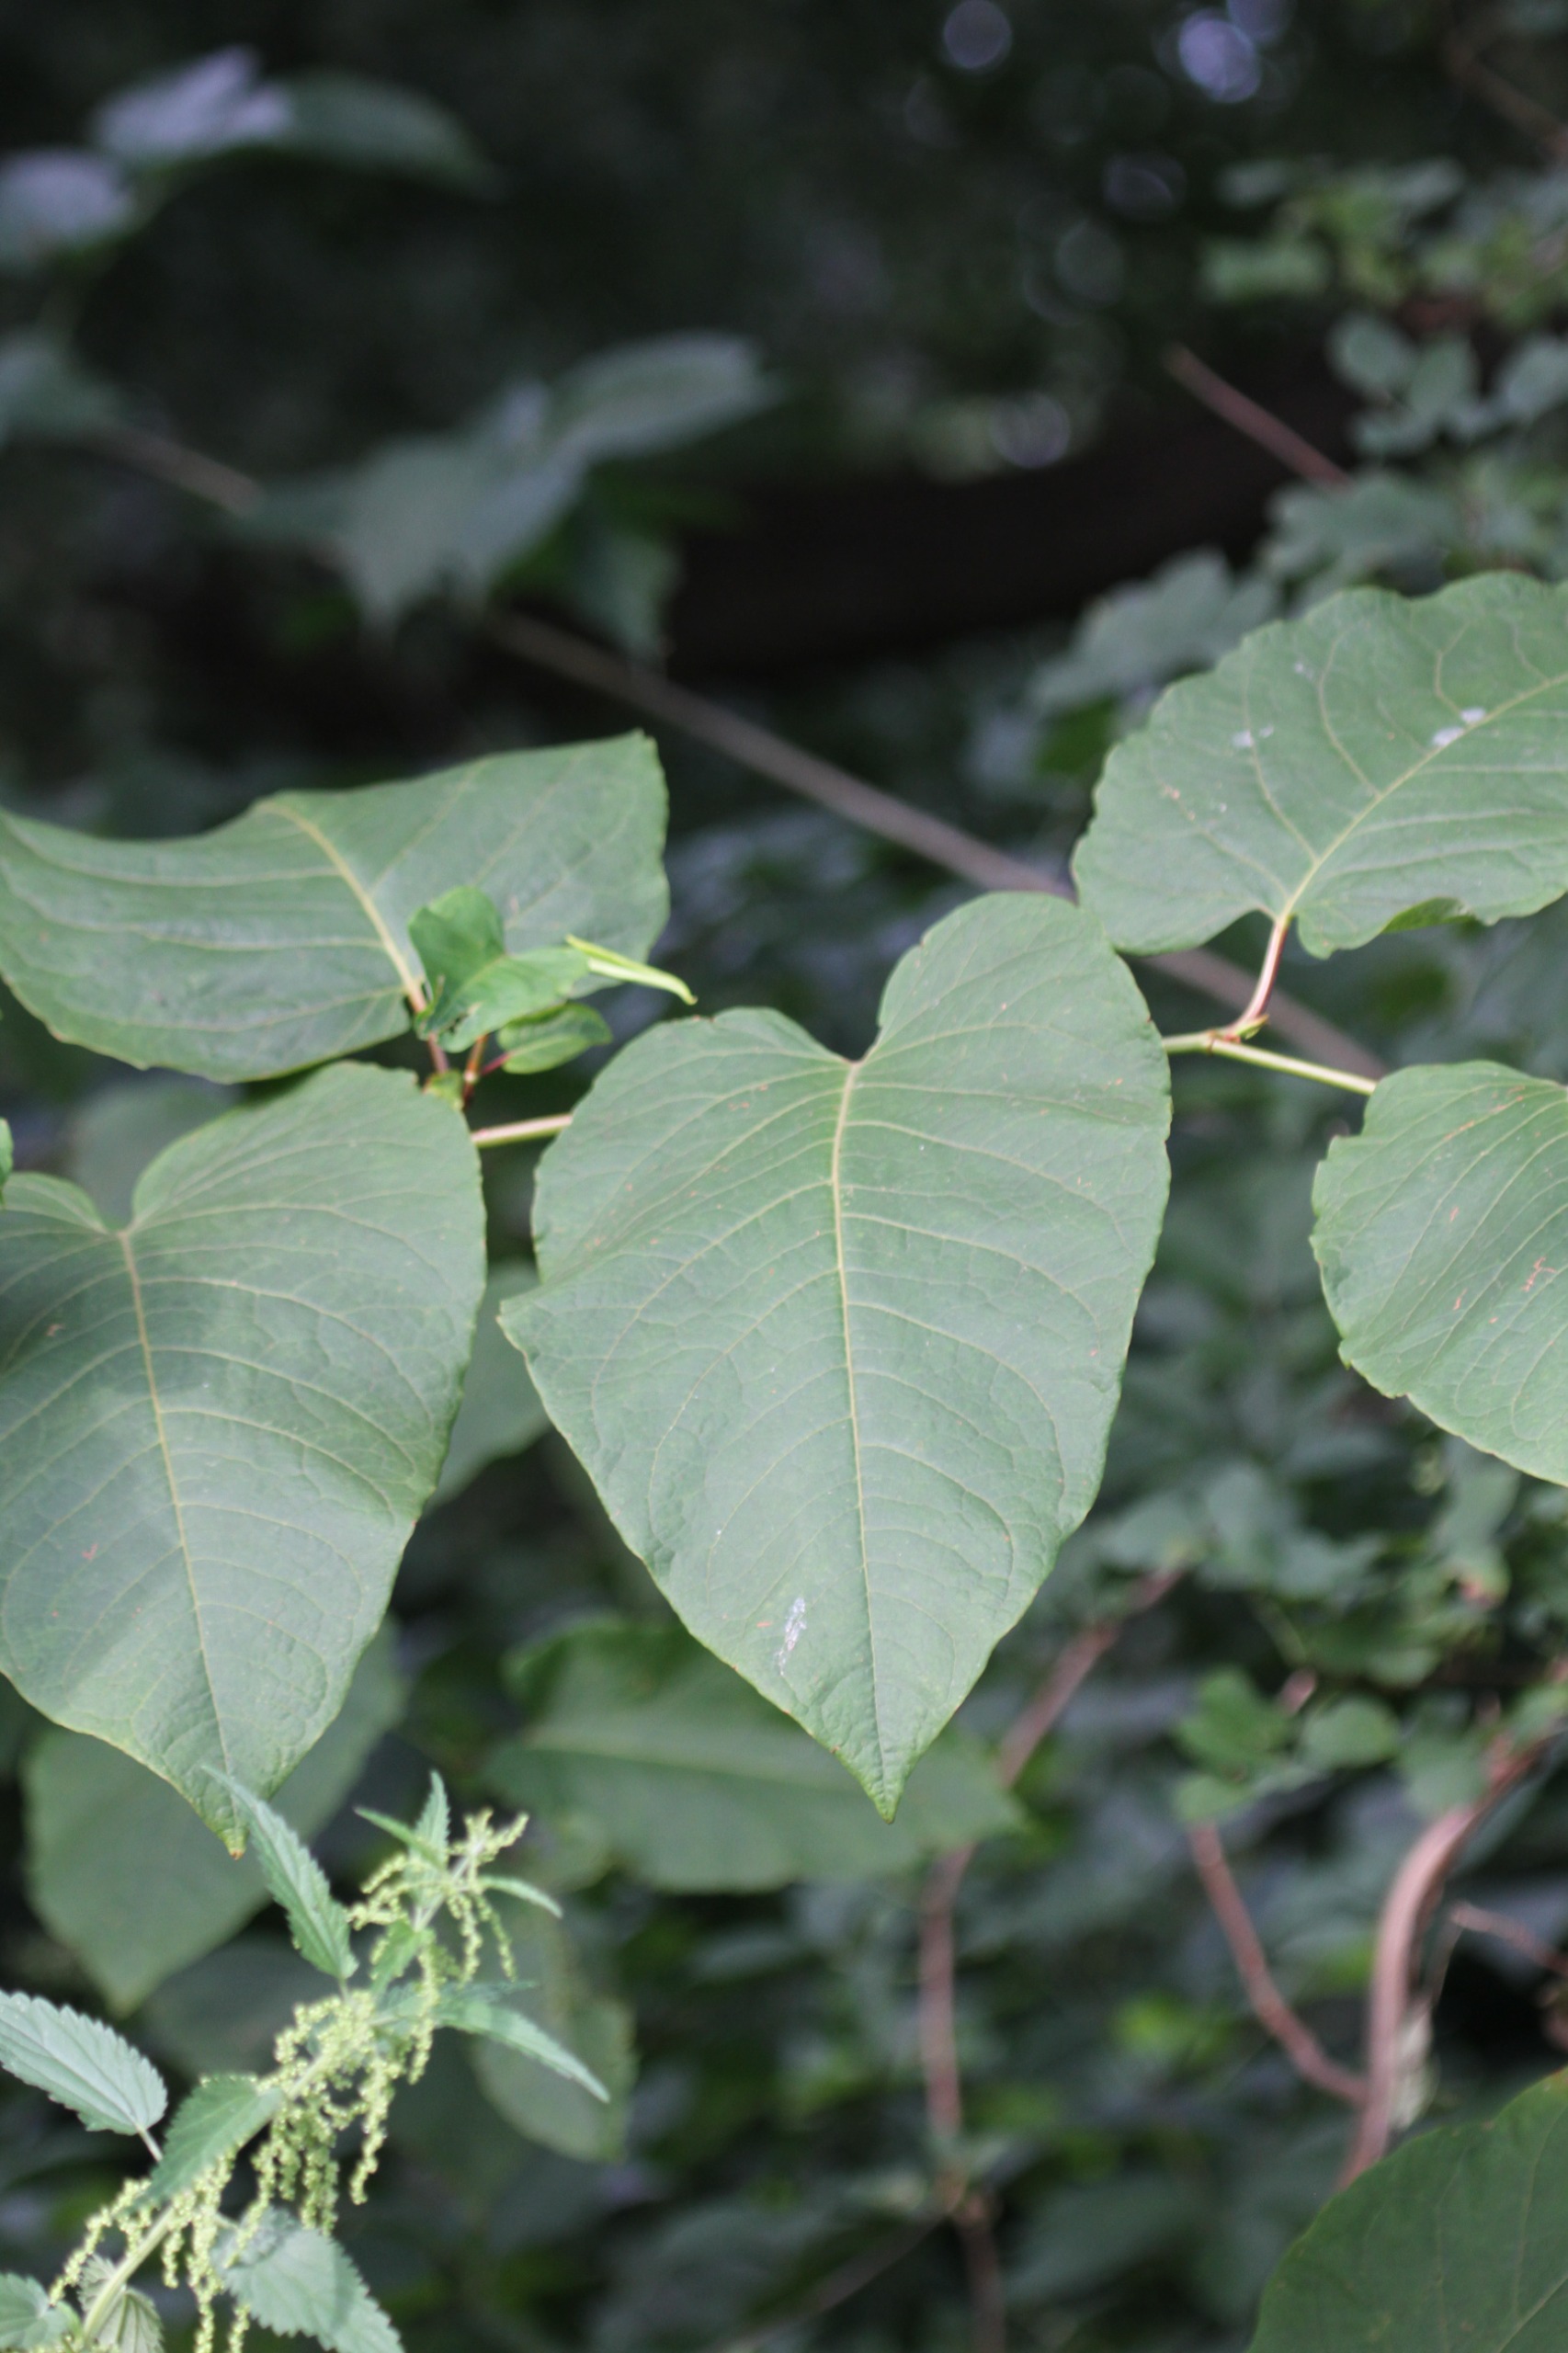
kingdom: Plantae
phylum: Tracheophyta
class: Magnoliopsida
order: Caryophyllales
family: Polygonaceae
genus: Reynoutria
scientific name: Reynoutria sachalinensis
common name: Kæmpe-pileurt
